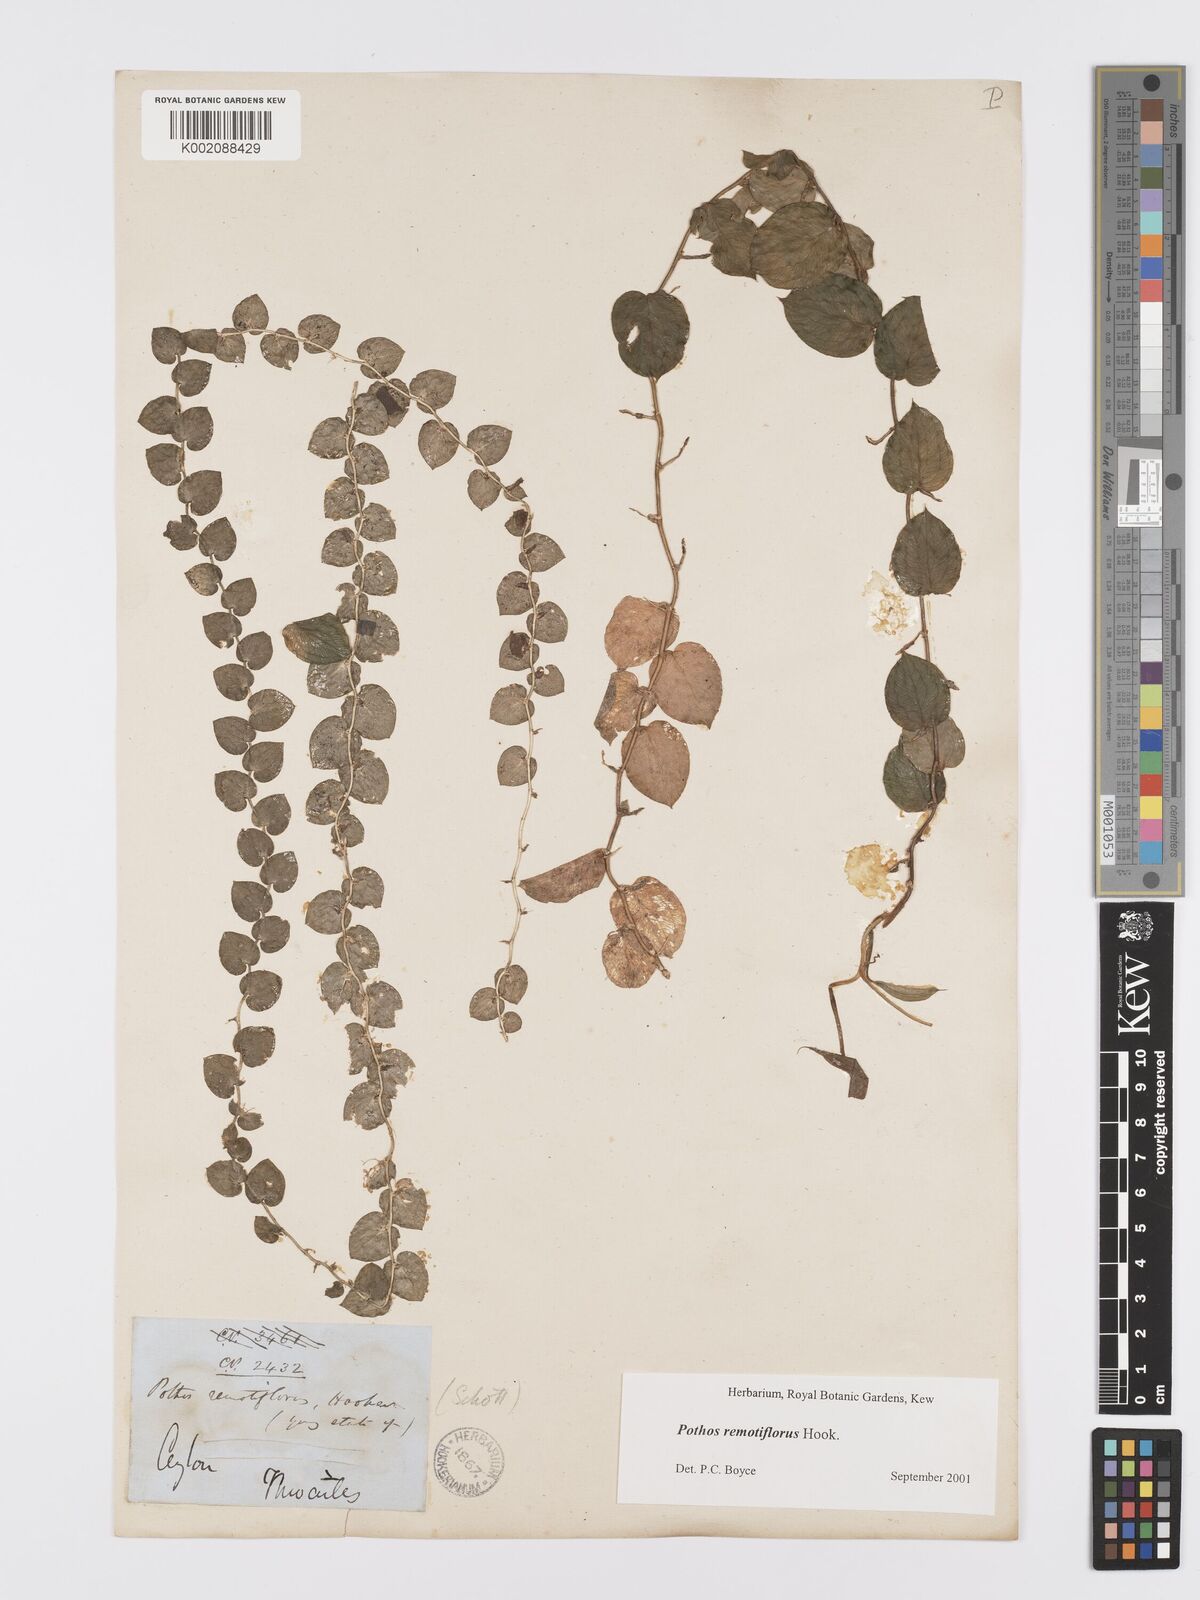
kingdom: Plantae
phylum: Tracheophyta
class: Liliopsida
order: Alismatales
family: Araceae
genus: Pothos
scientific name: Pothos remotiflorus
